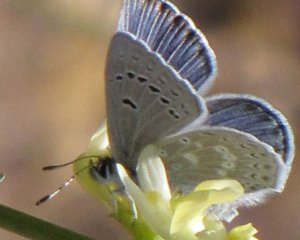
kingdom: Animalia
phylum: Arthropoda
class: Insecta
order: Lepidoptera
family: Lycaenidae
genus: Icaricia
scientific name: Icaricia icarioides
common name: Boisduval's Blue
